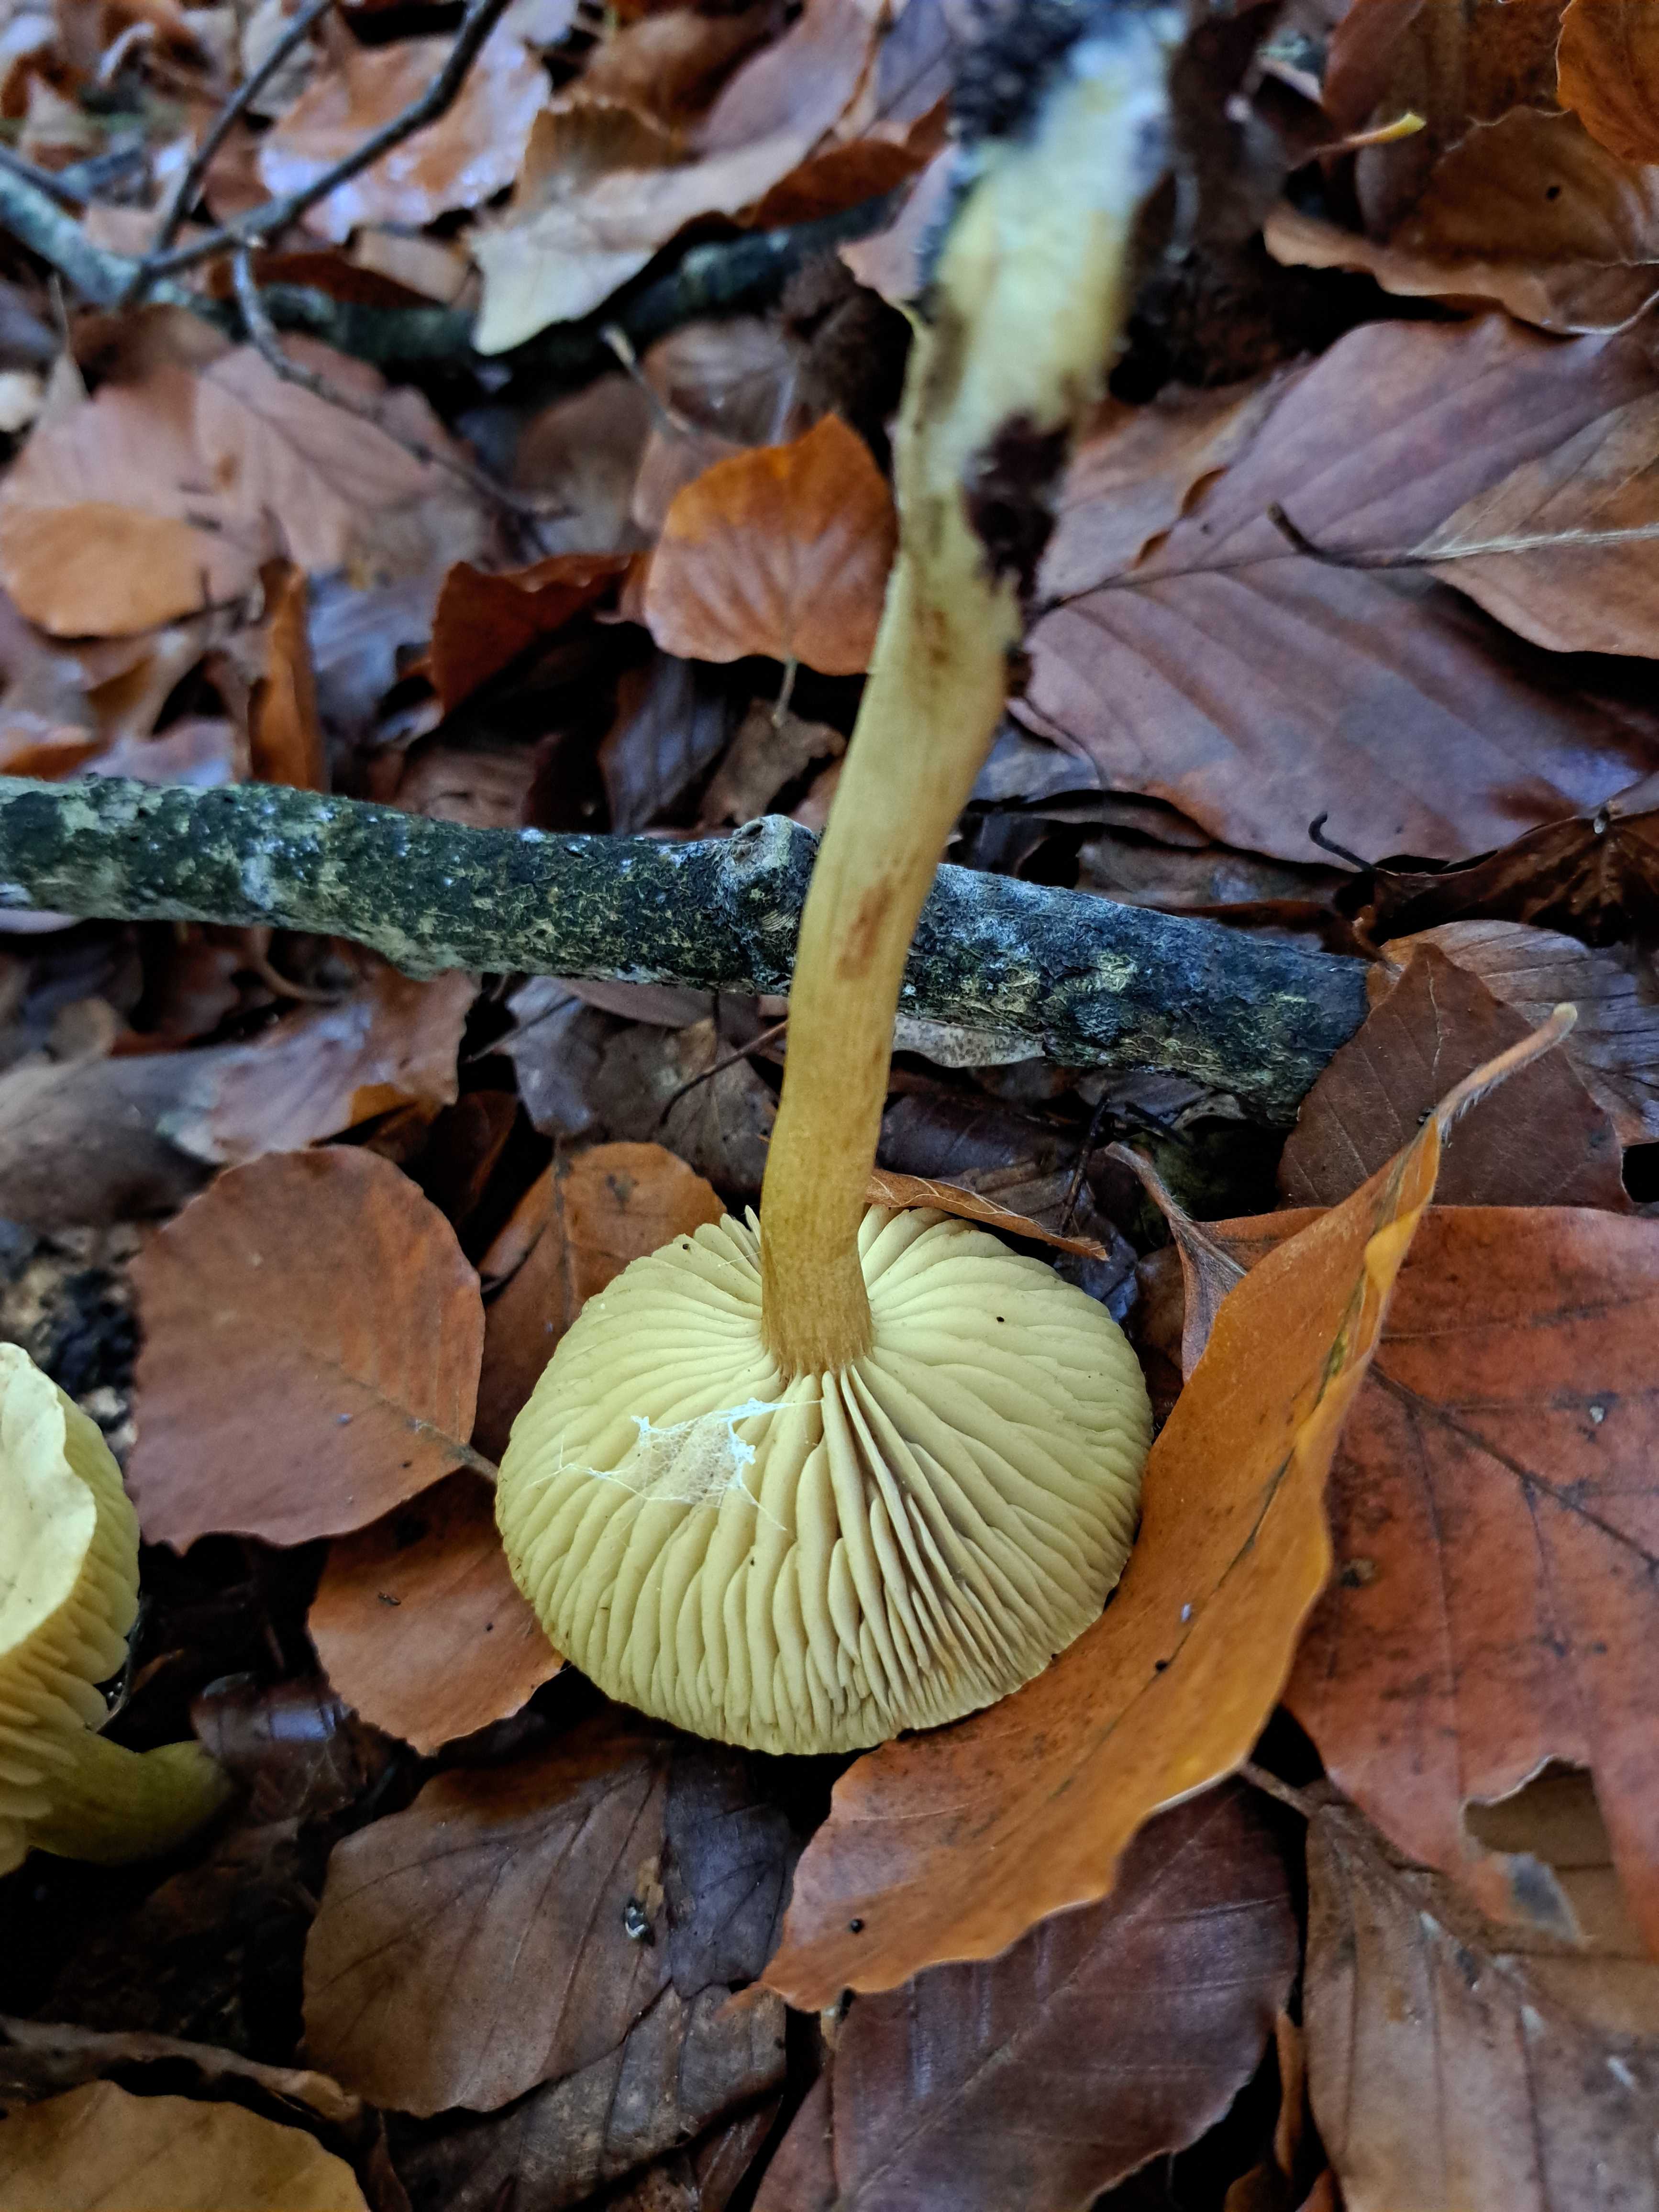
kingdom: Fungi
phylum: Basidiomycota
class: Agaricomycetes
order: Agaricales
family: Tricholomataceae
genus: Tricholoma
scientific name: Tricholoma sulphureum
